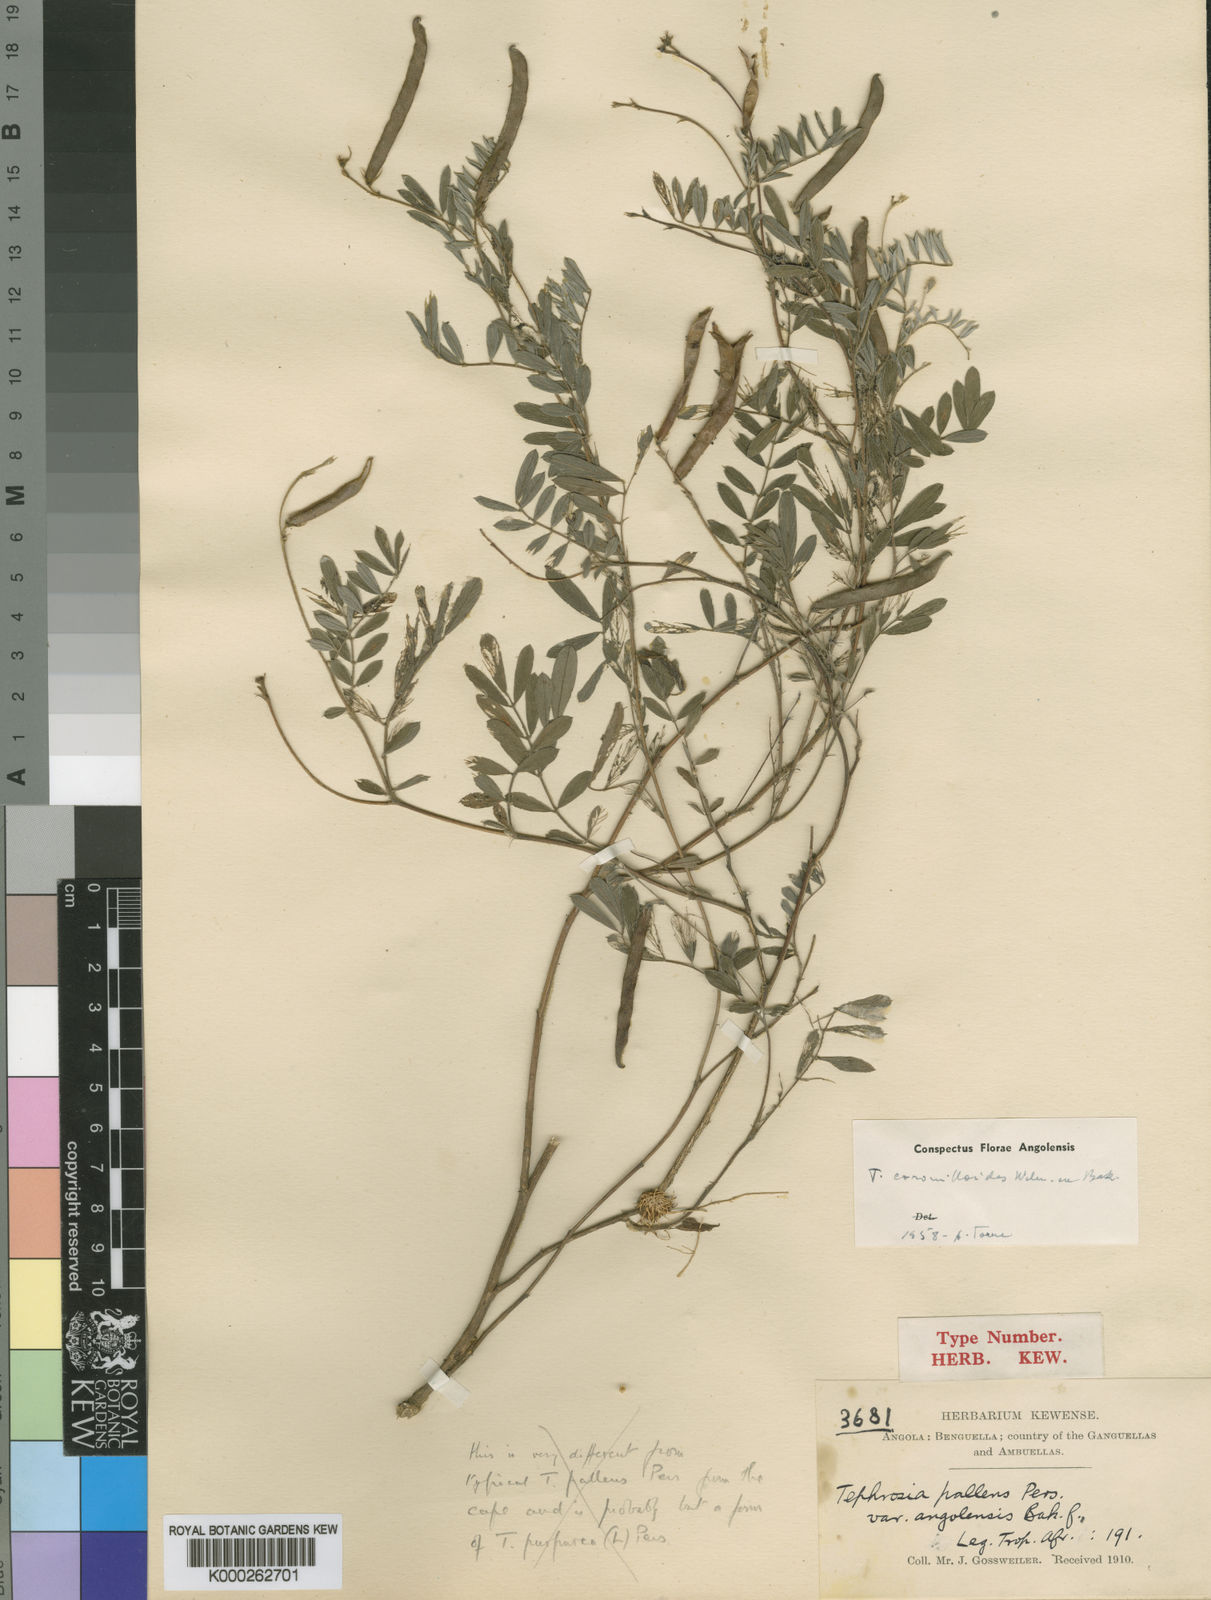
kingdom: Plantae
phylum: Tracheophyta
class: Magnoliopsida
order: Fabales
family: Fabaceae
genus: Tephrosia
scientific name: Tephrosia coronilloides
